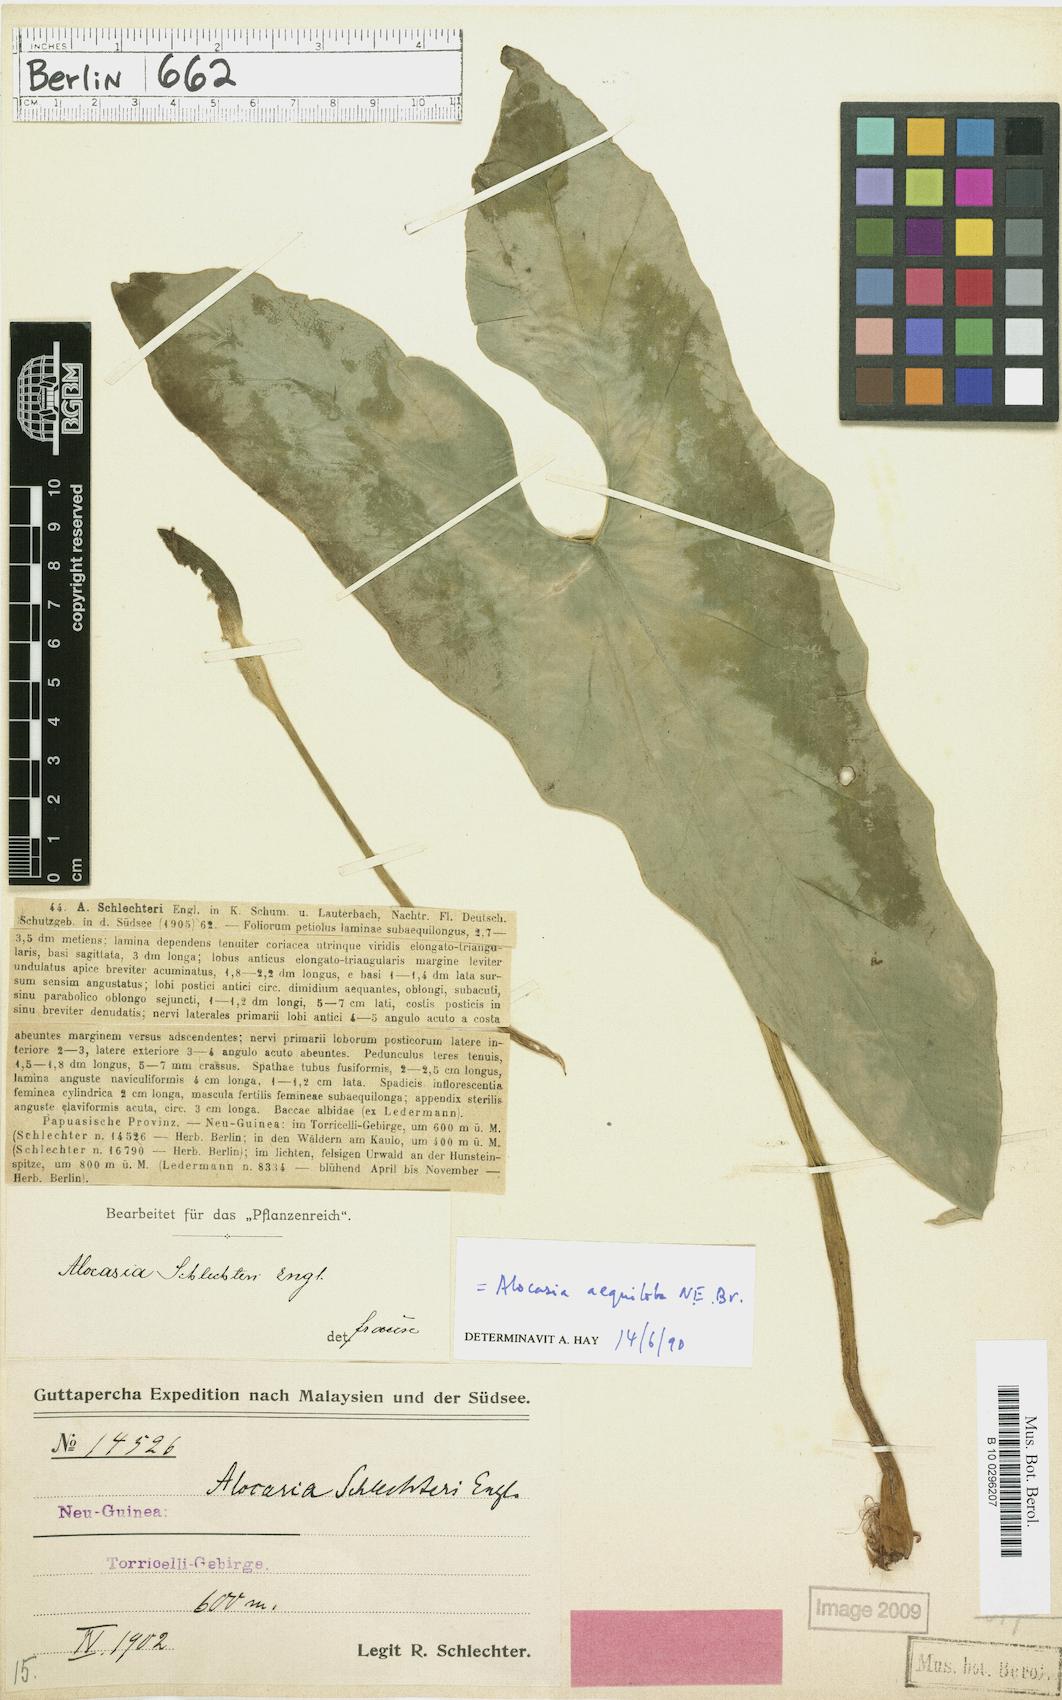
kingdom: Plantae
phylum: Tracheophyta
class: Liliopsida
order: Alismatales
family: Araceae
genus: Alocasia
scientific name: Alocasia aequiloba
